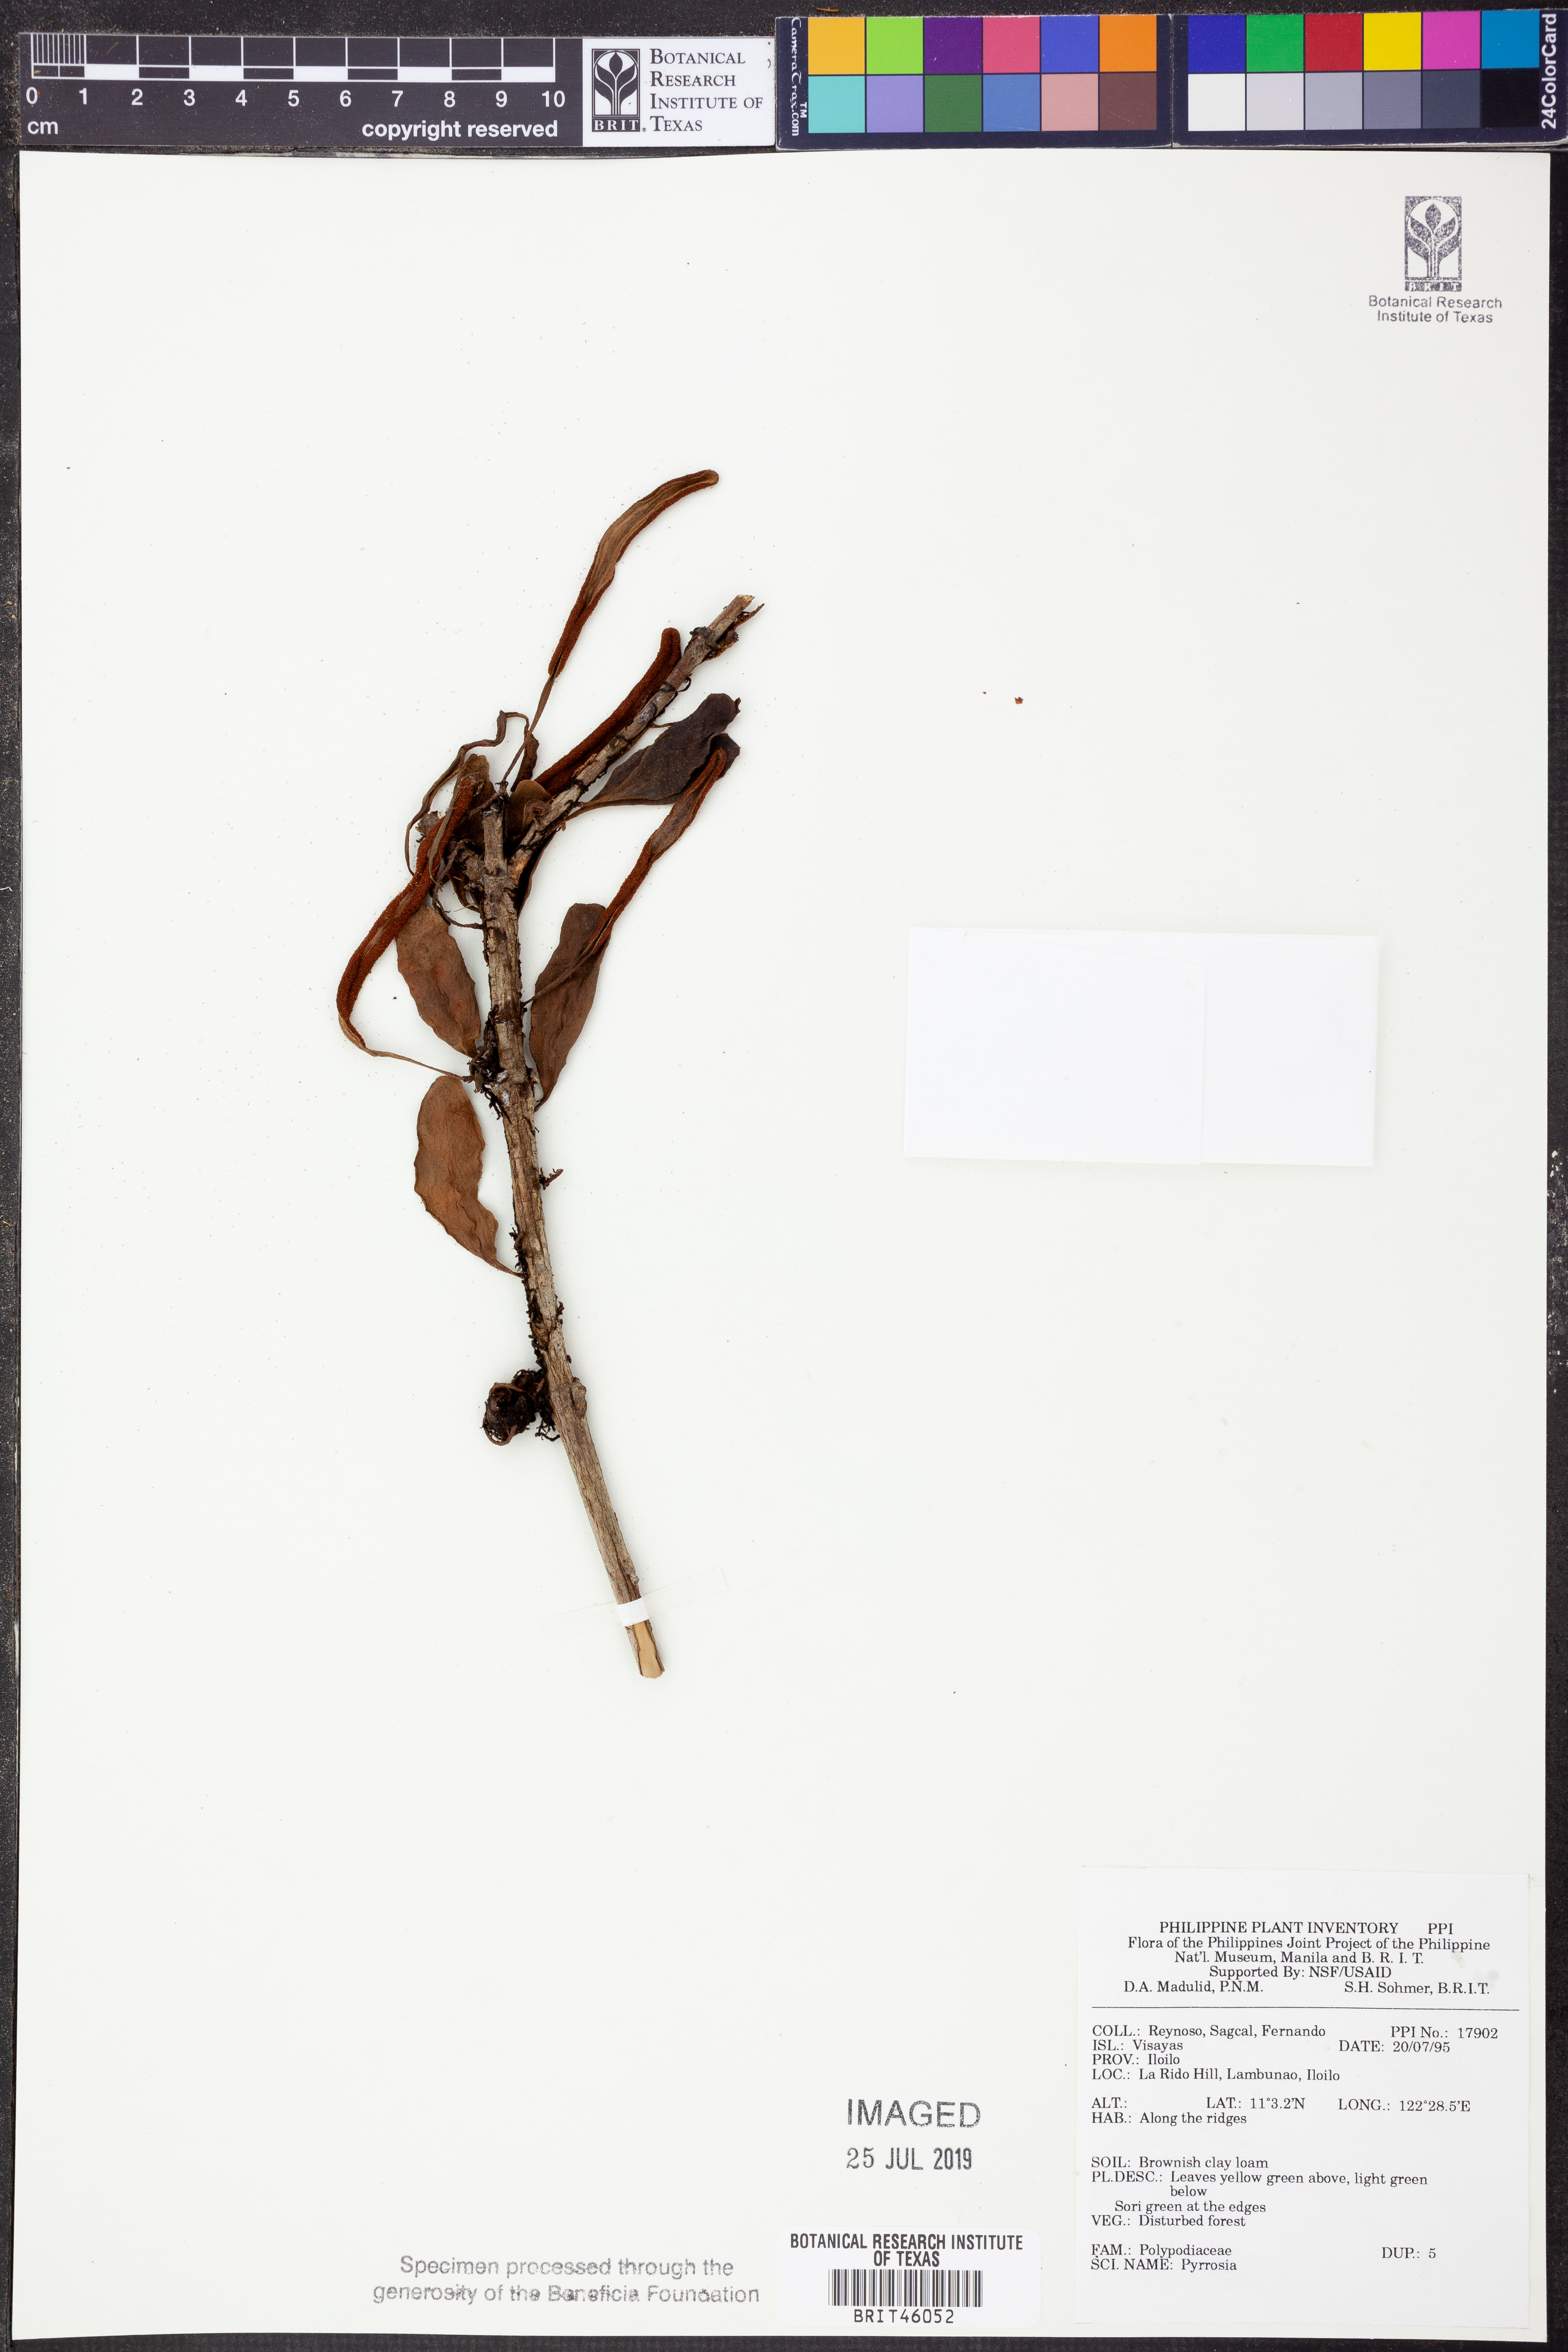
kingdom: Plantae
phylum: Tracheophyta
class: Polypodiopsida
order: Polypodiales
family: Polypodiaceae
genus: Pyrrosia
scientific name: Pyrrosia
